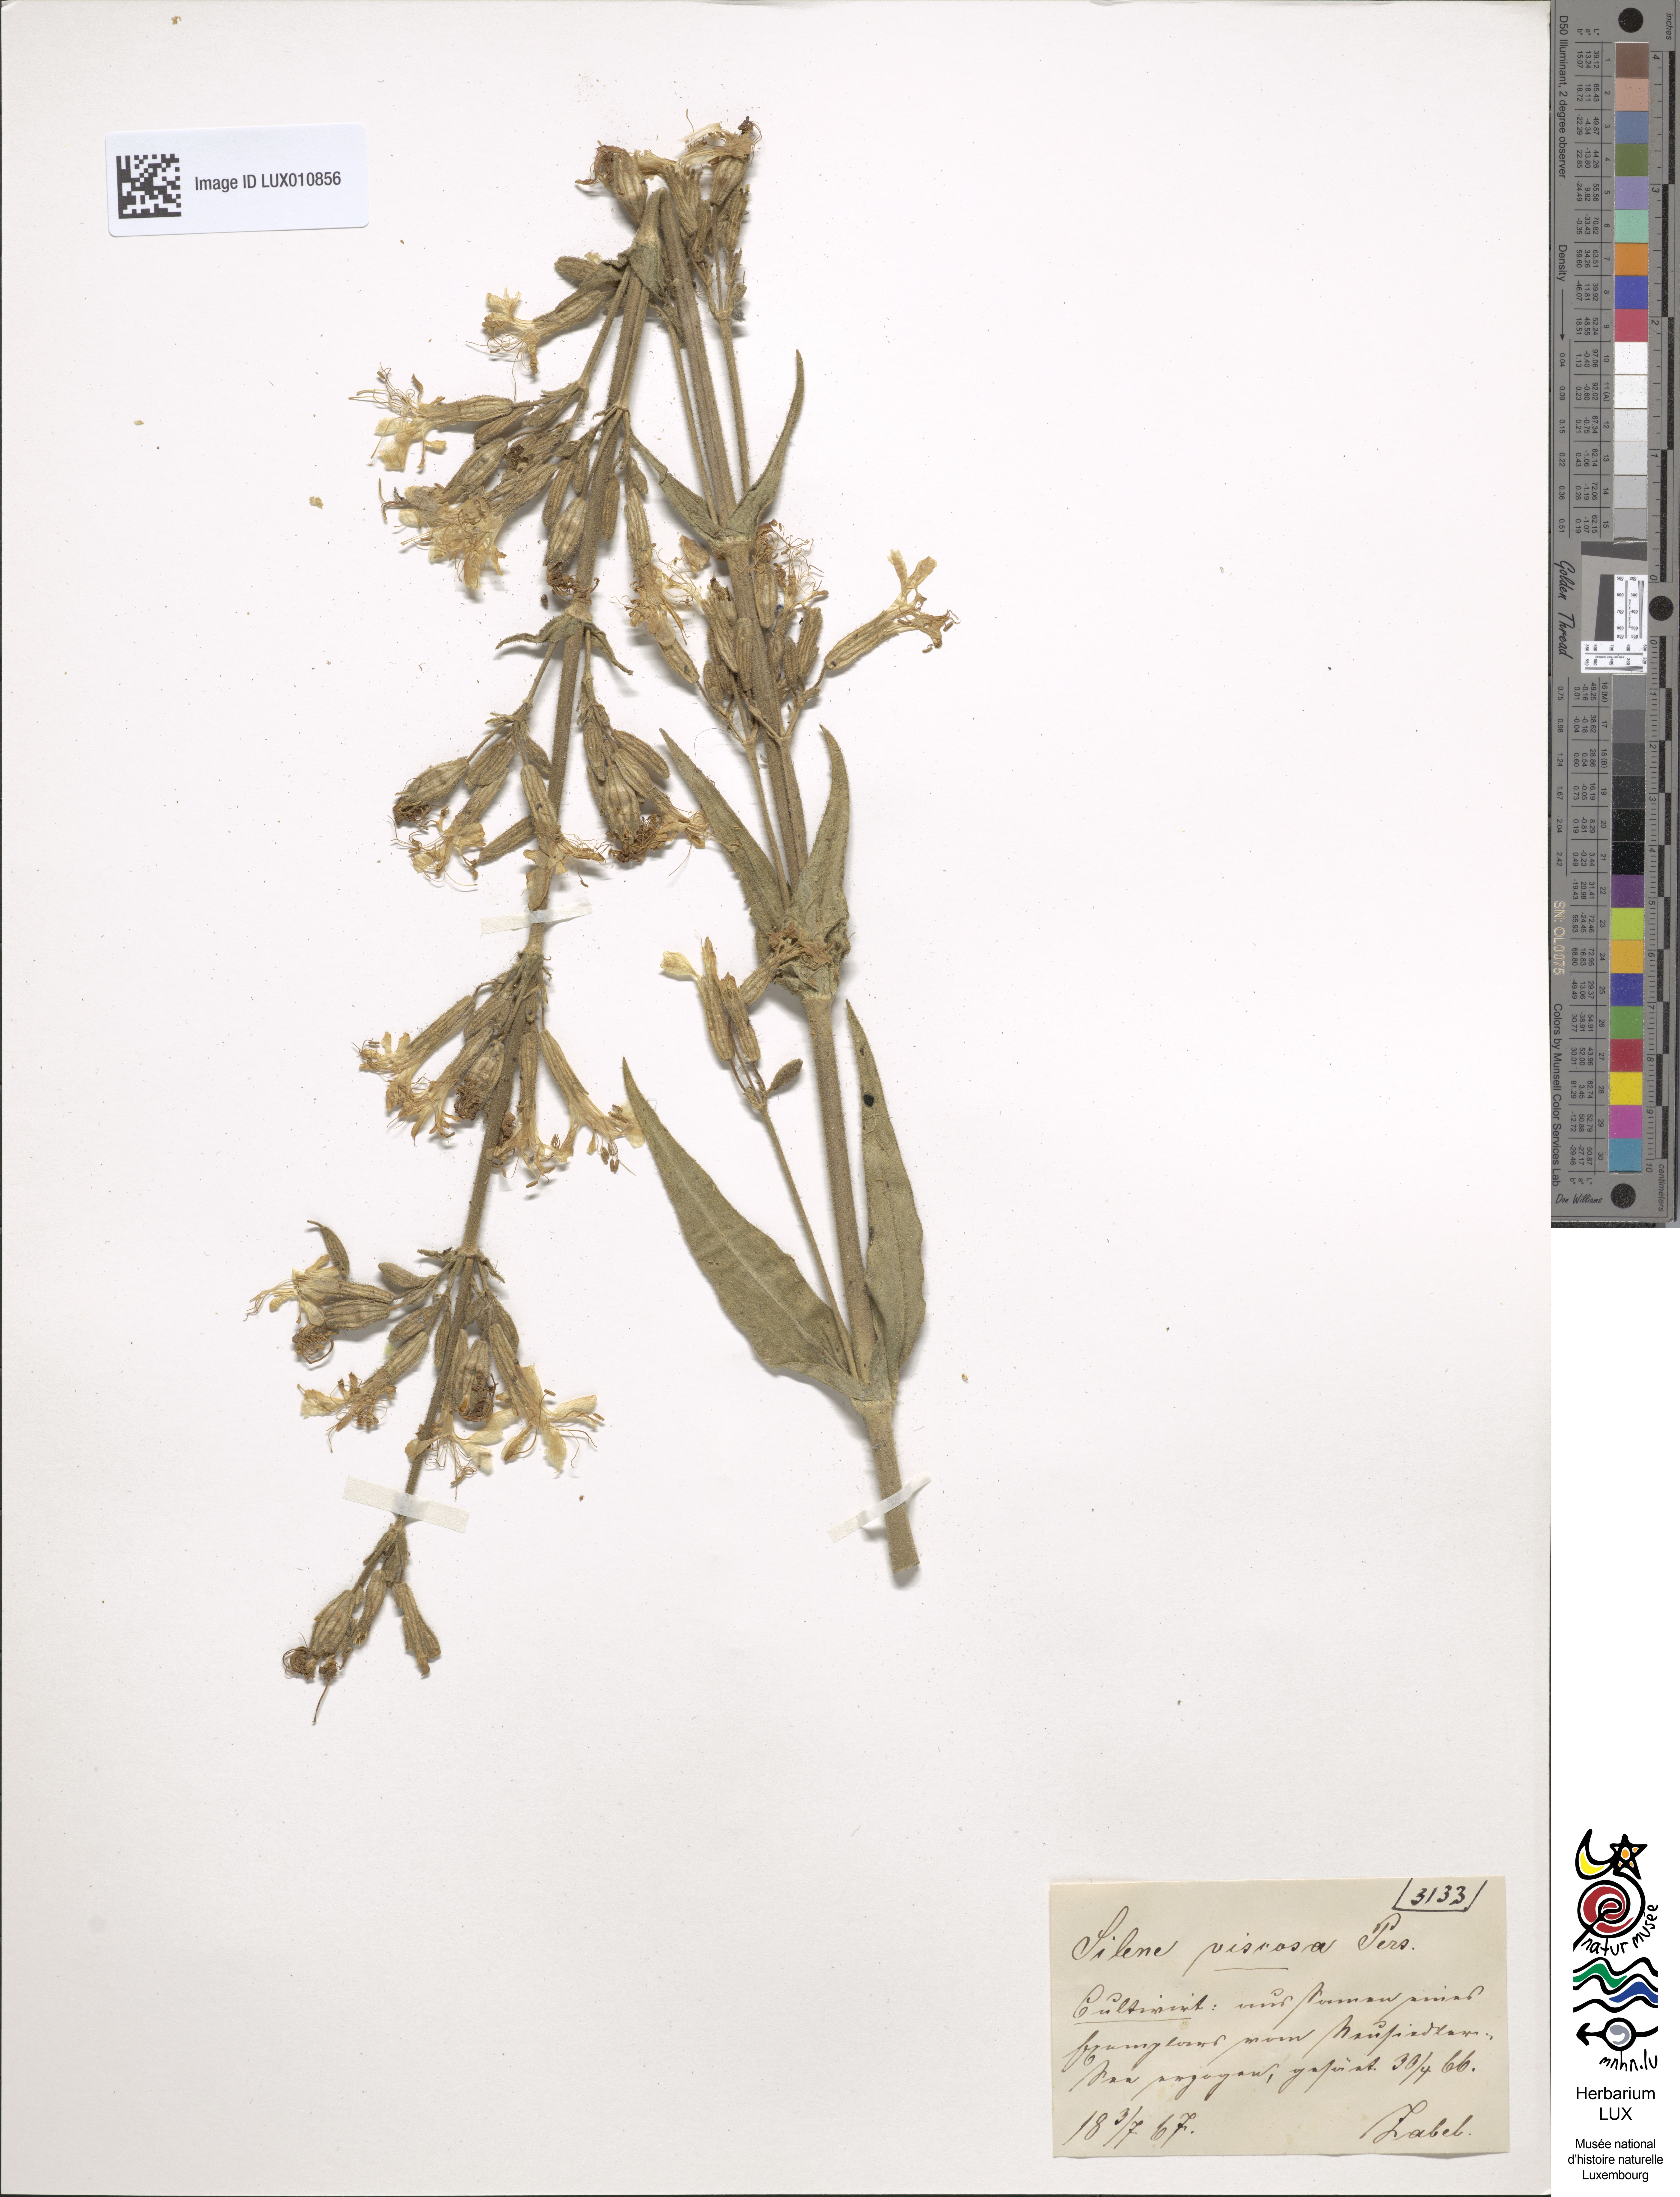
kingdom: Plantae
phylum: Tracheophyta
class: Magnoliopsida
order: Caryophyllales
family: Caryophyllaceae
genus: Silene
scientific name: Silene viscosa
